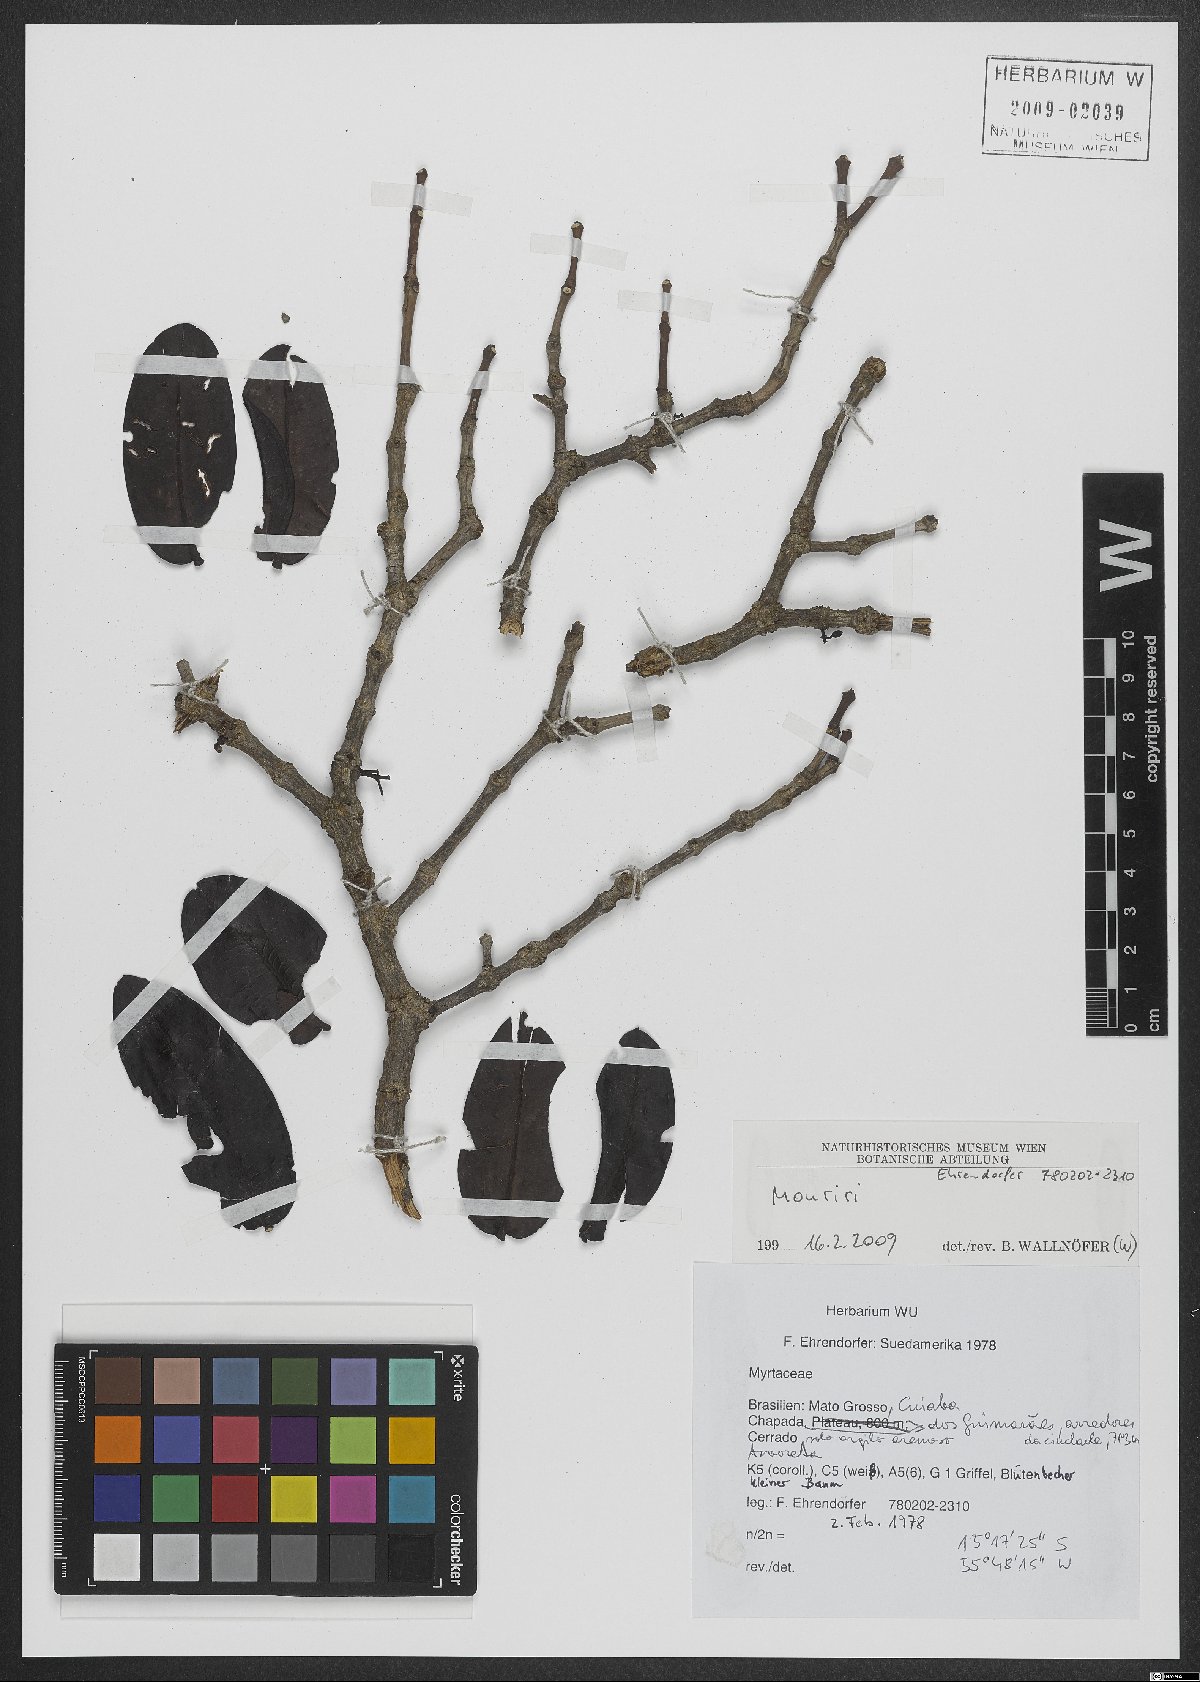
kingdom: Plantae
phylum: Tracheophyta
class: Magnoliopsida
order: Myrtales
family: Melastomataceae
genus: Mouriri
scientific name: Mouriri
